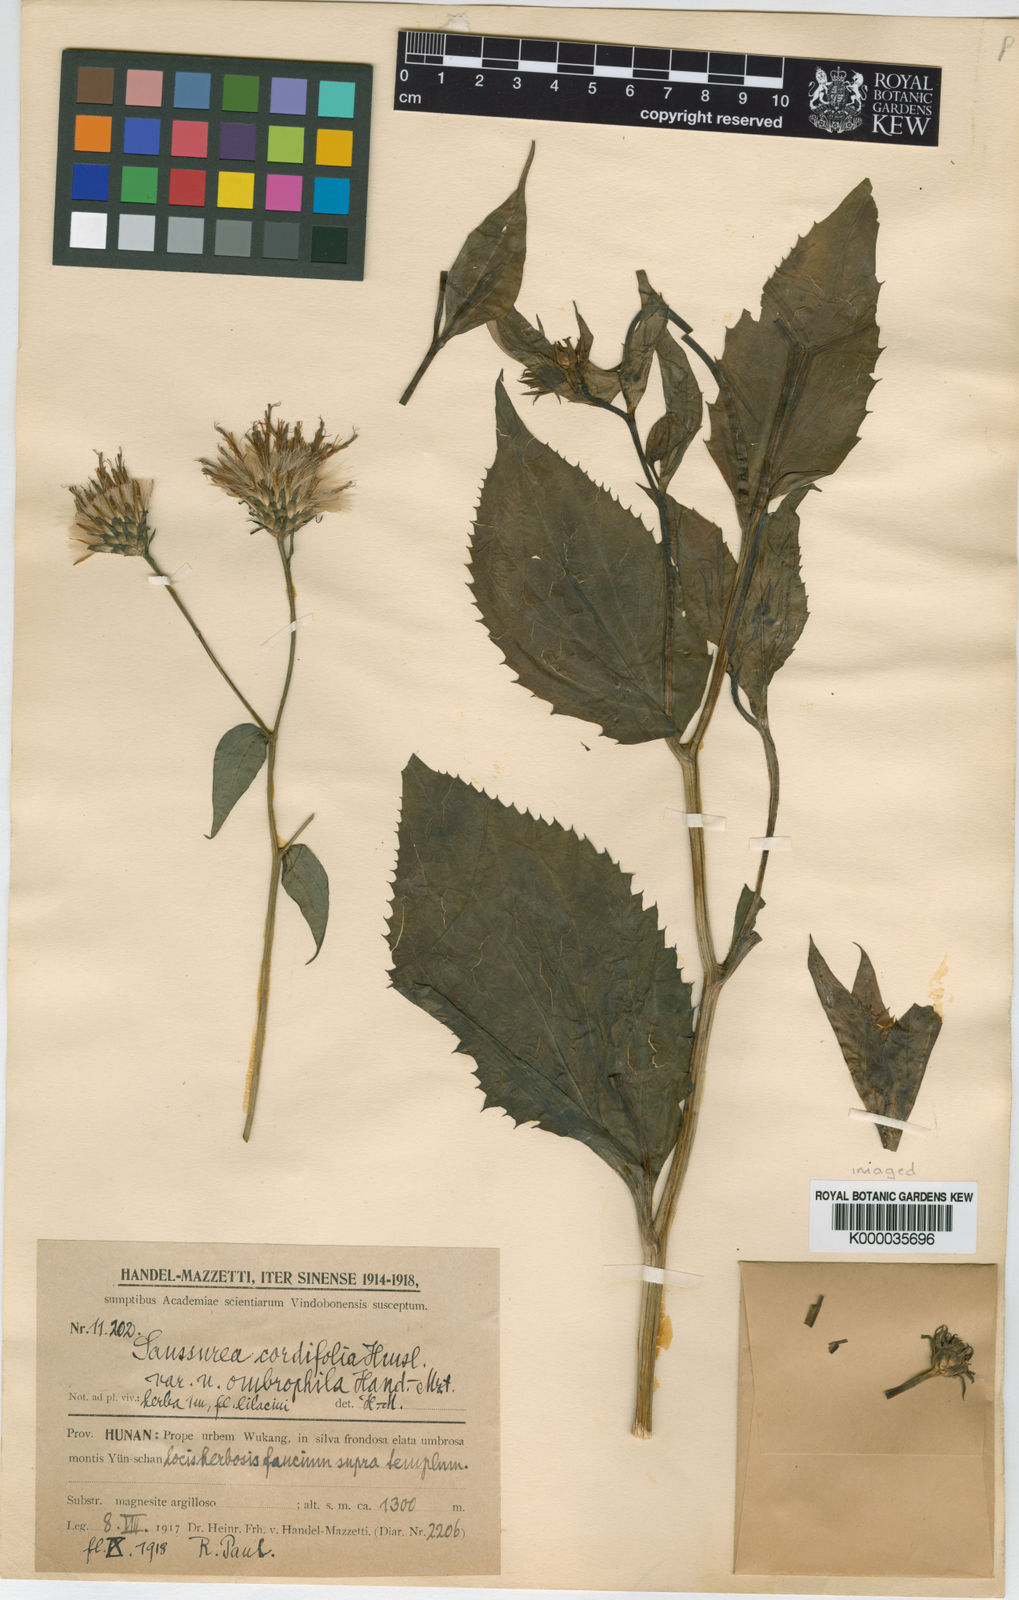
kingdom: Plantae
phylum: Tracheophyta
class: Magnoliopsida
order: Asterales
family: Asteraceae
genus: Saussurea
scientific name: Saussurea cordifolia
